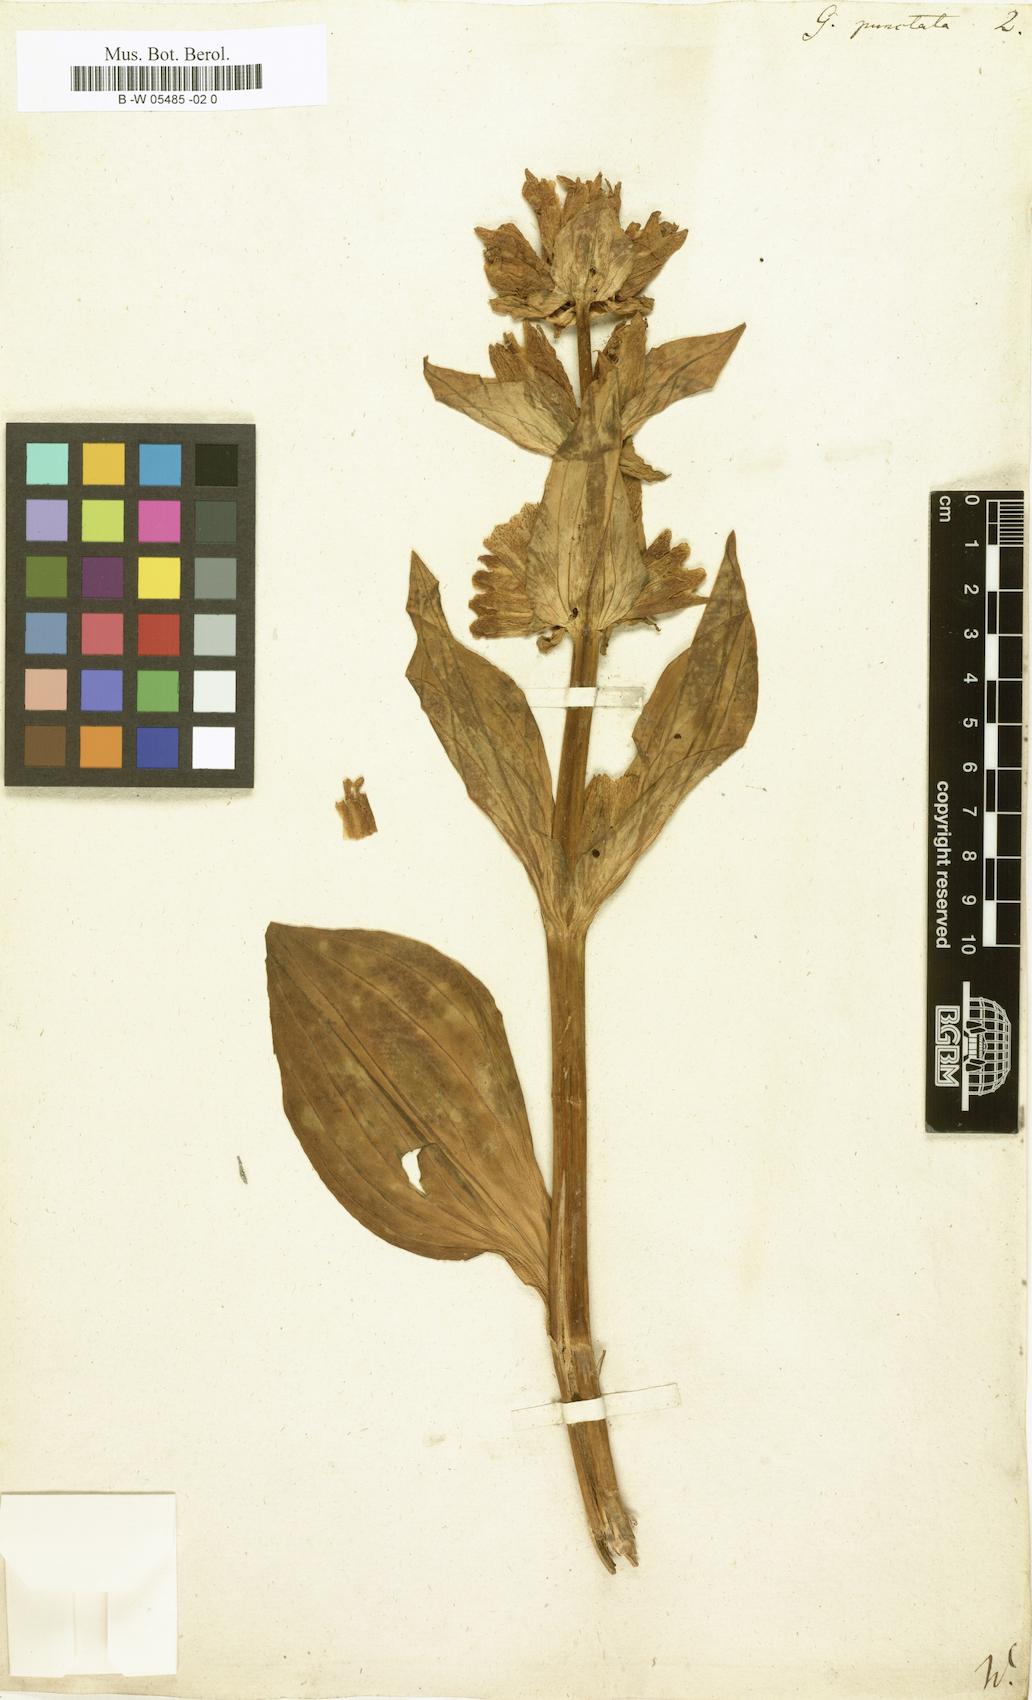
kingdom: Plantae
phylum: Tracheophyta
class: Magnoliopsida
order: Gentianales
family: Gentianaceae
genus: Gentiana
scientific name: Gentiana punctata
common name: Spotted gentian
